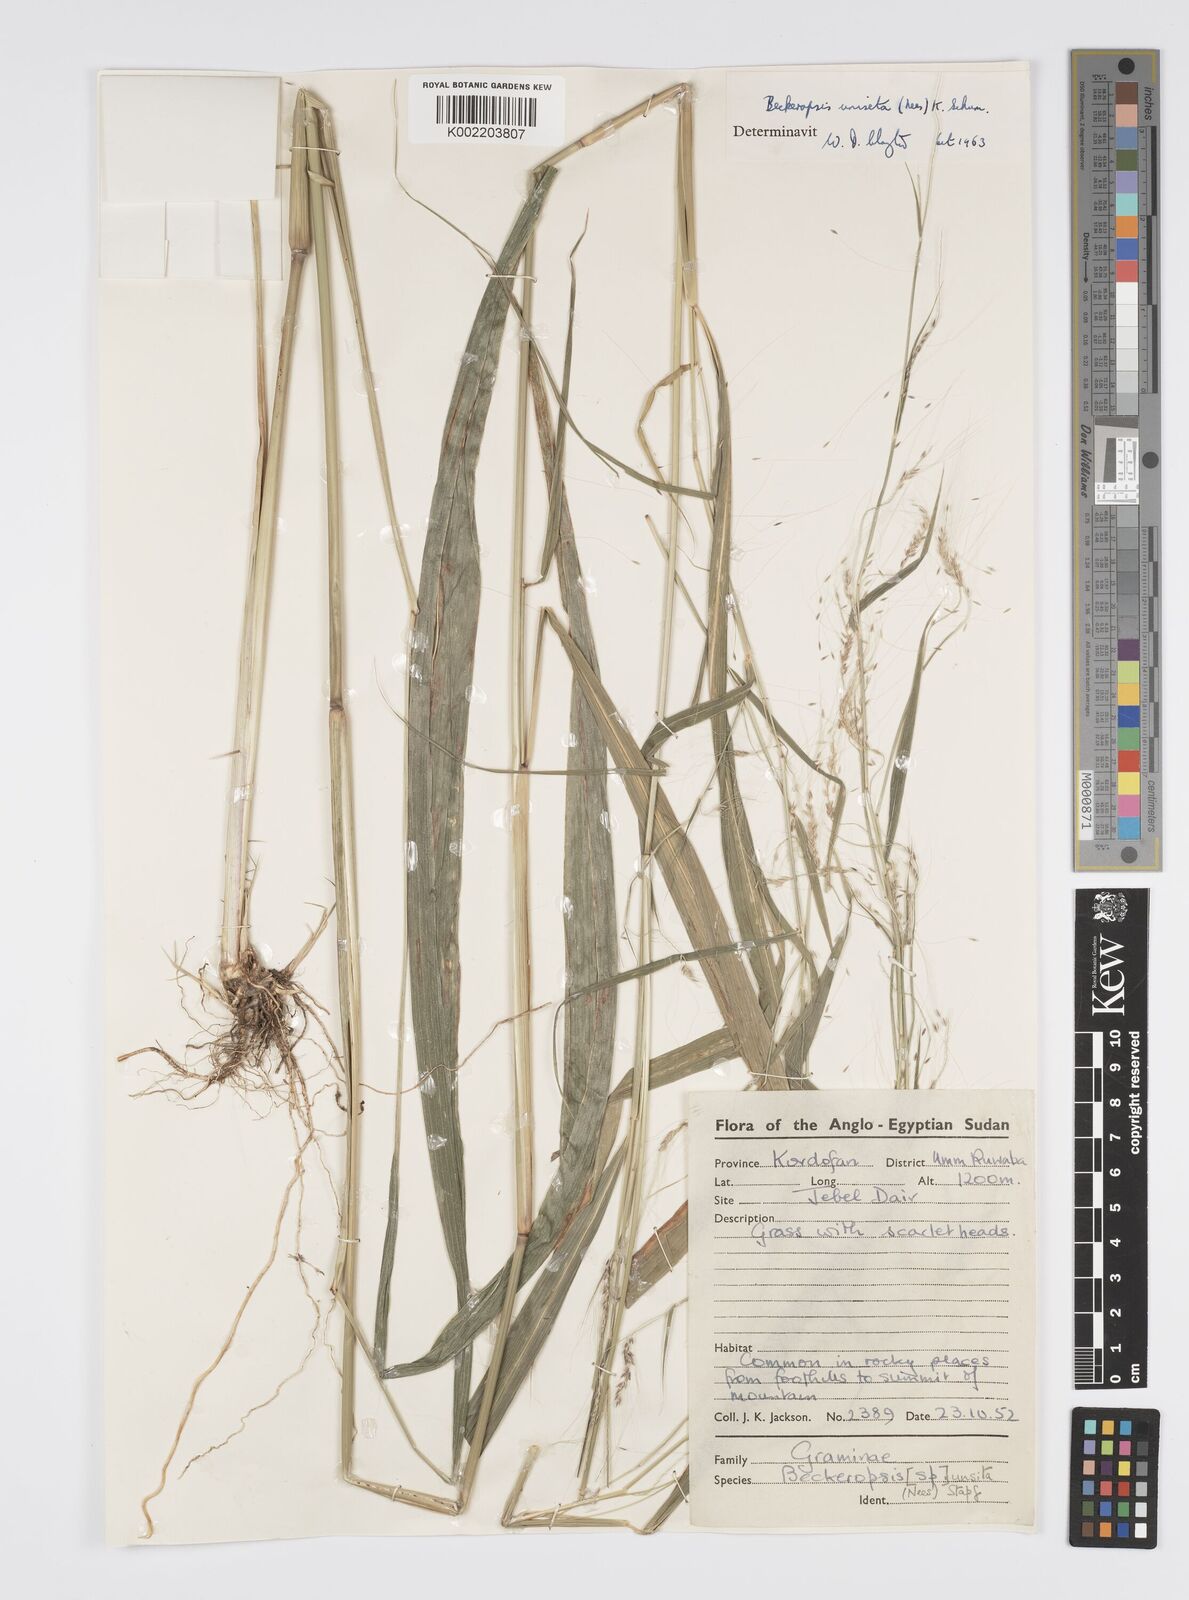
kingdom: Plantae
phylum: Tracheophyta
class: Liliopsida
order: Poales
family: Poaceae
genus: Cenchrus
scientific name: Cenchrus unisetus
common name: Natal grass
